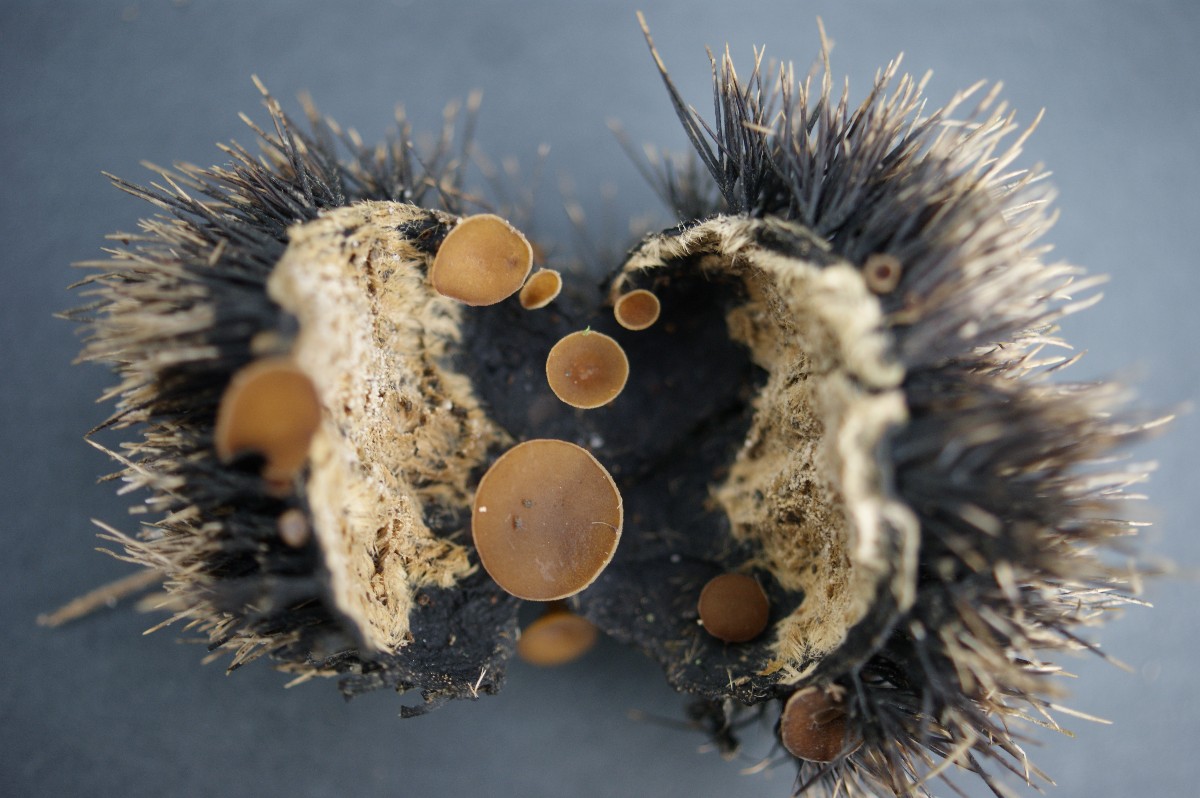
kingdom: Fungi
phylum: Ascomycota
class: Leotiomycetes
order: Helotiales
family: Rutstroemiaceae
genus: Lanzia
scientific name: Lanzia echinophila
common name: kastanie-brunskive
